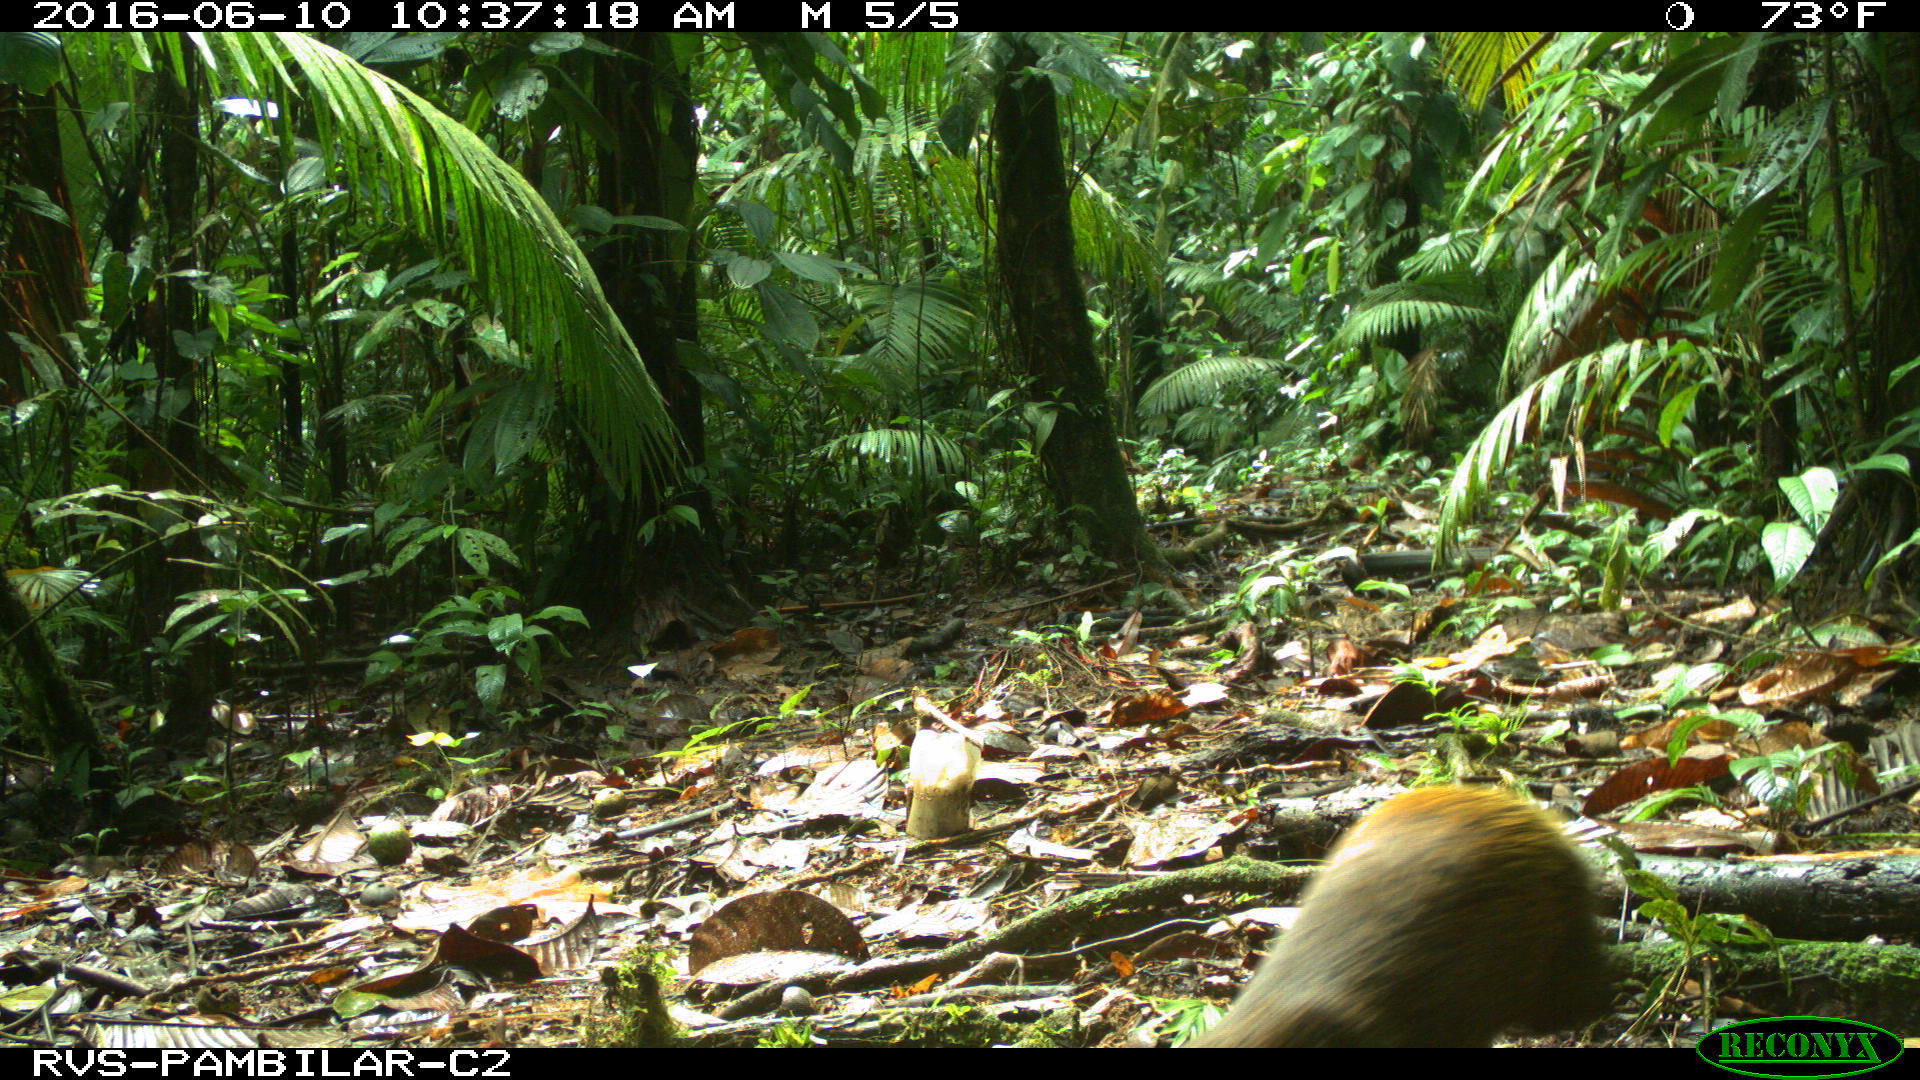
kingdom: Animalia
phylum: Chordata
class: Mammalia
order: Rodentia
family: Dasyproctidae
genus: Dasyprocta
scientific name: Dasyprocta punctata
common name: Central american agouti
